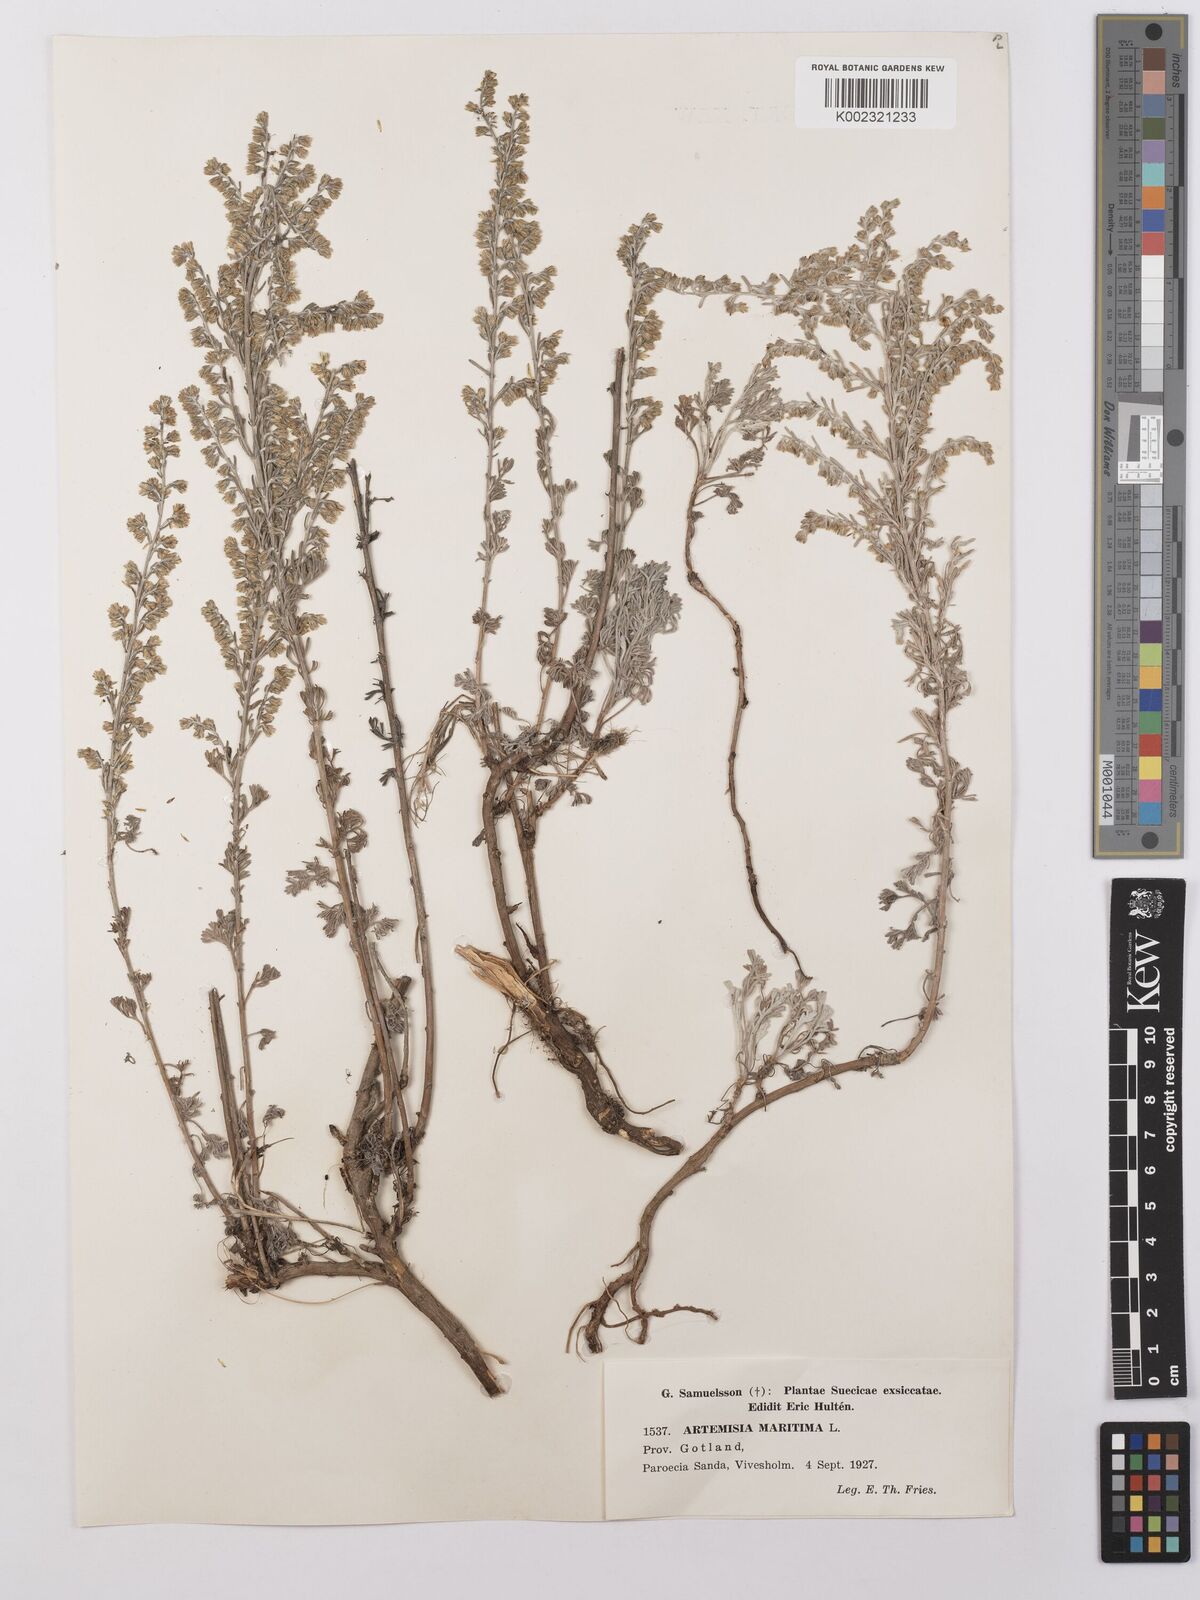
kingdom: Plantae
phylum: Tracheophyta
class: Magnoliopsida
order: Asterales
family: Asteraceae
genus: Artemisia
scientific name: Artemisia maritima
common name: Wormseed
